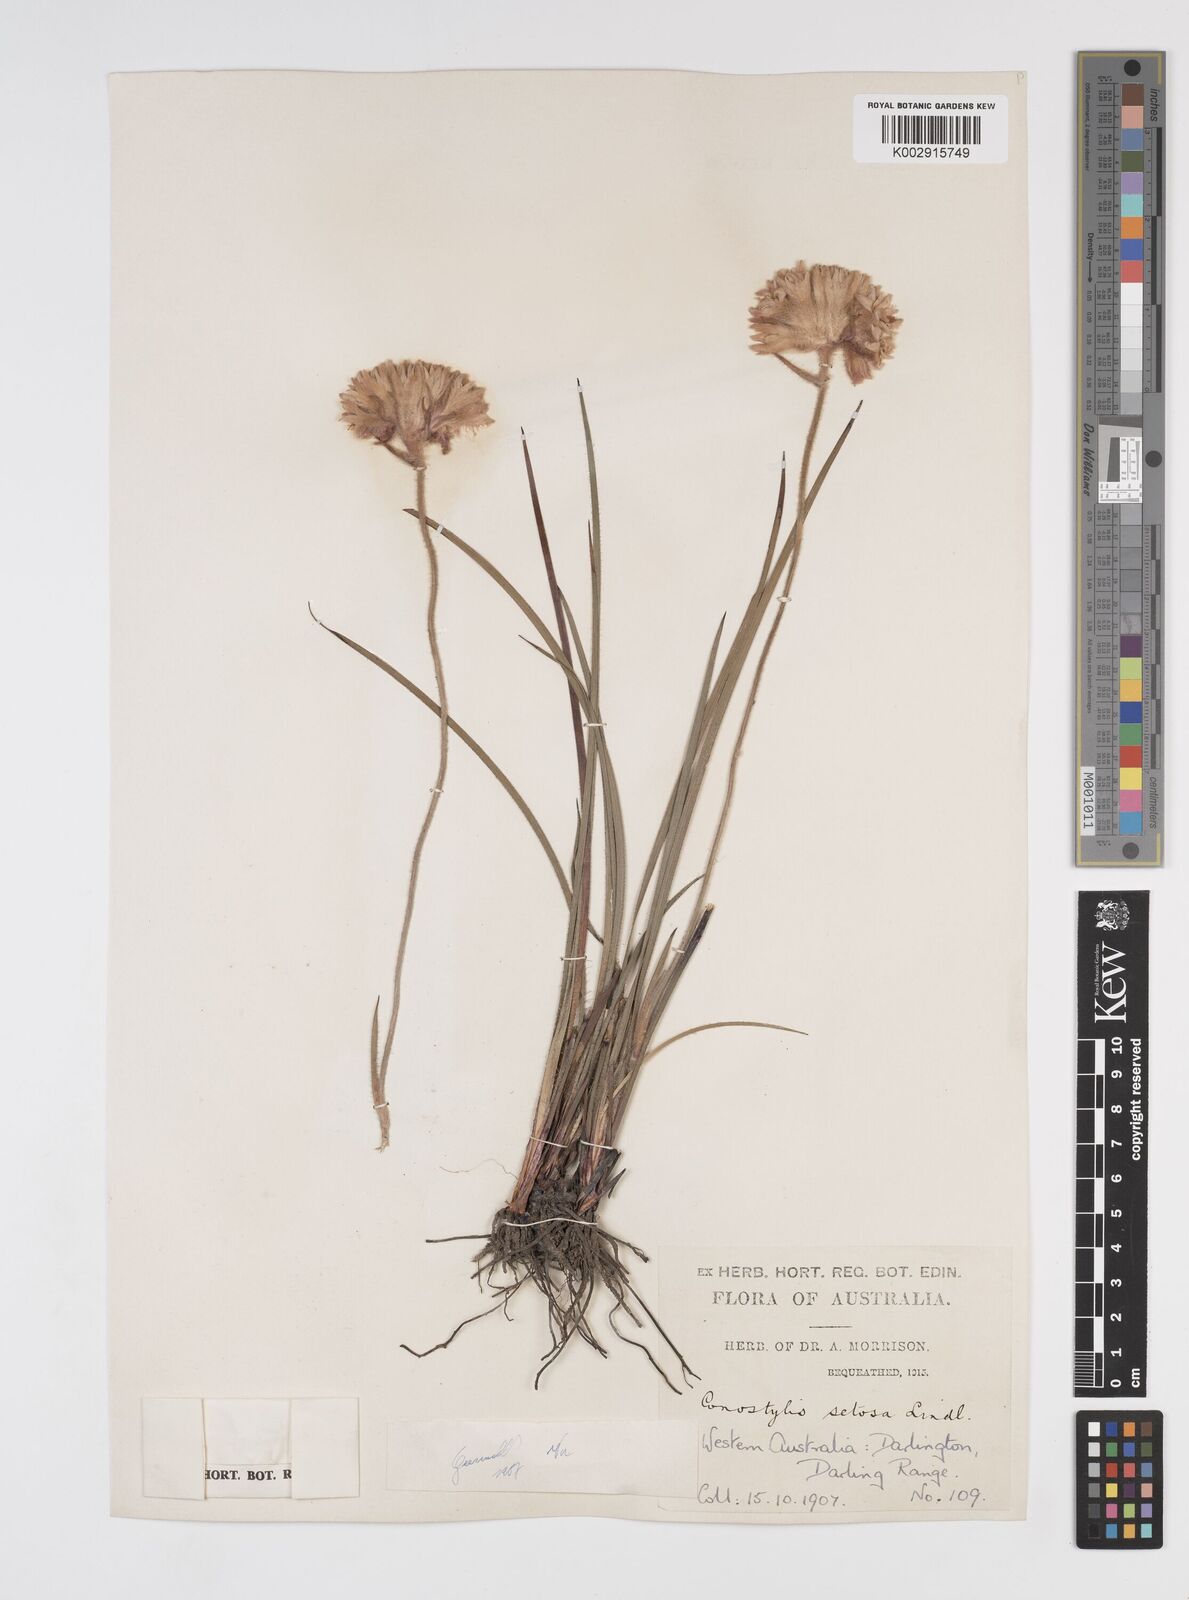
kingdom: Plantae
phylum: Tracheophyta
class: Liliopsida
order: Commelinales
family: Haemodoraceae
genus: Conostylis
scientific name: Conostylis setosa
